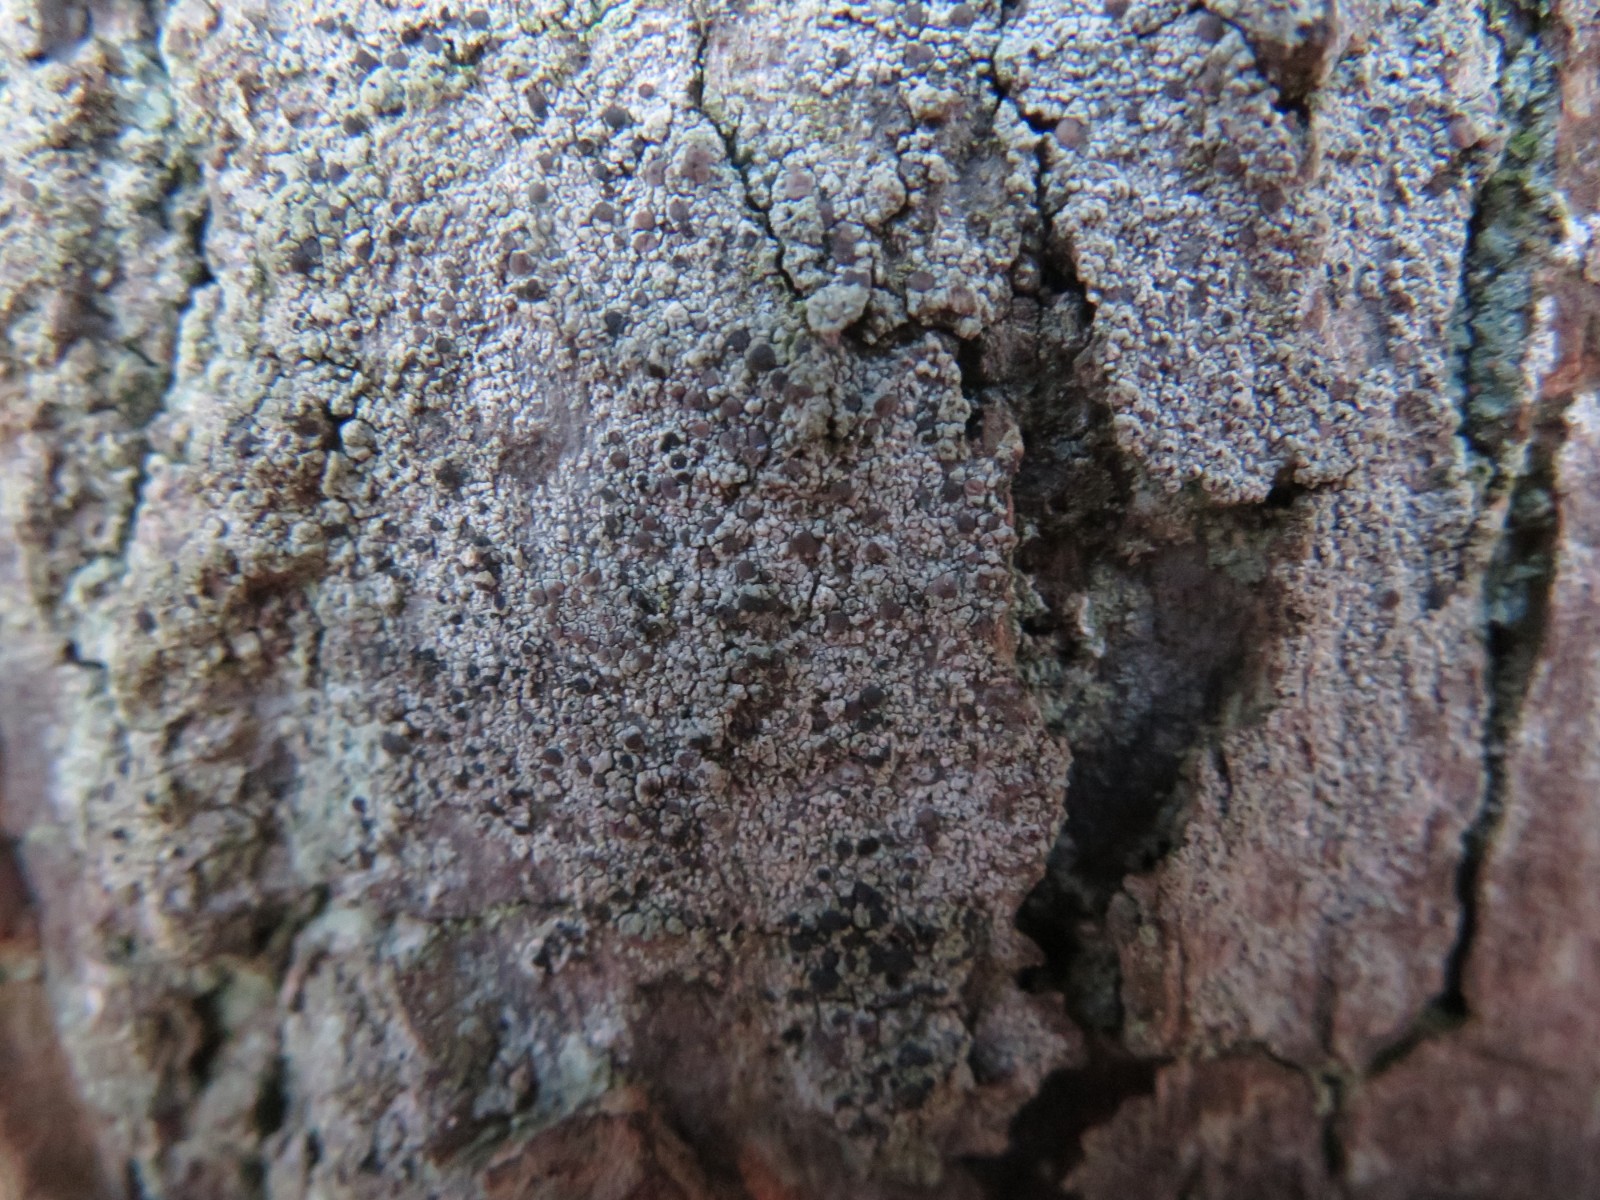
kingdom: Fungi
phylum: Ascomycota
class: Lecanoromycetes
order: Lecanorales
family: Ramalinaceae
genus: Cliostomum
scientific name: Cliostomum griffithii
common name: trefarvet tensporelav
